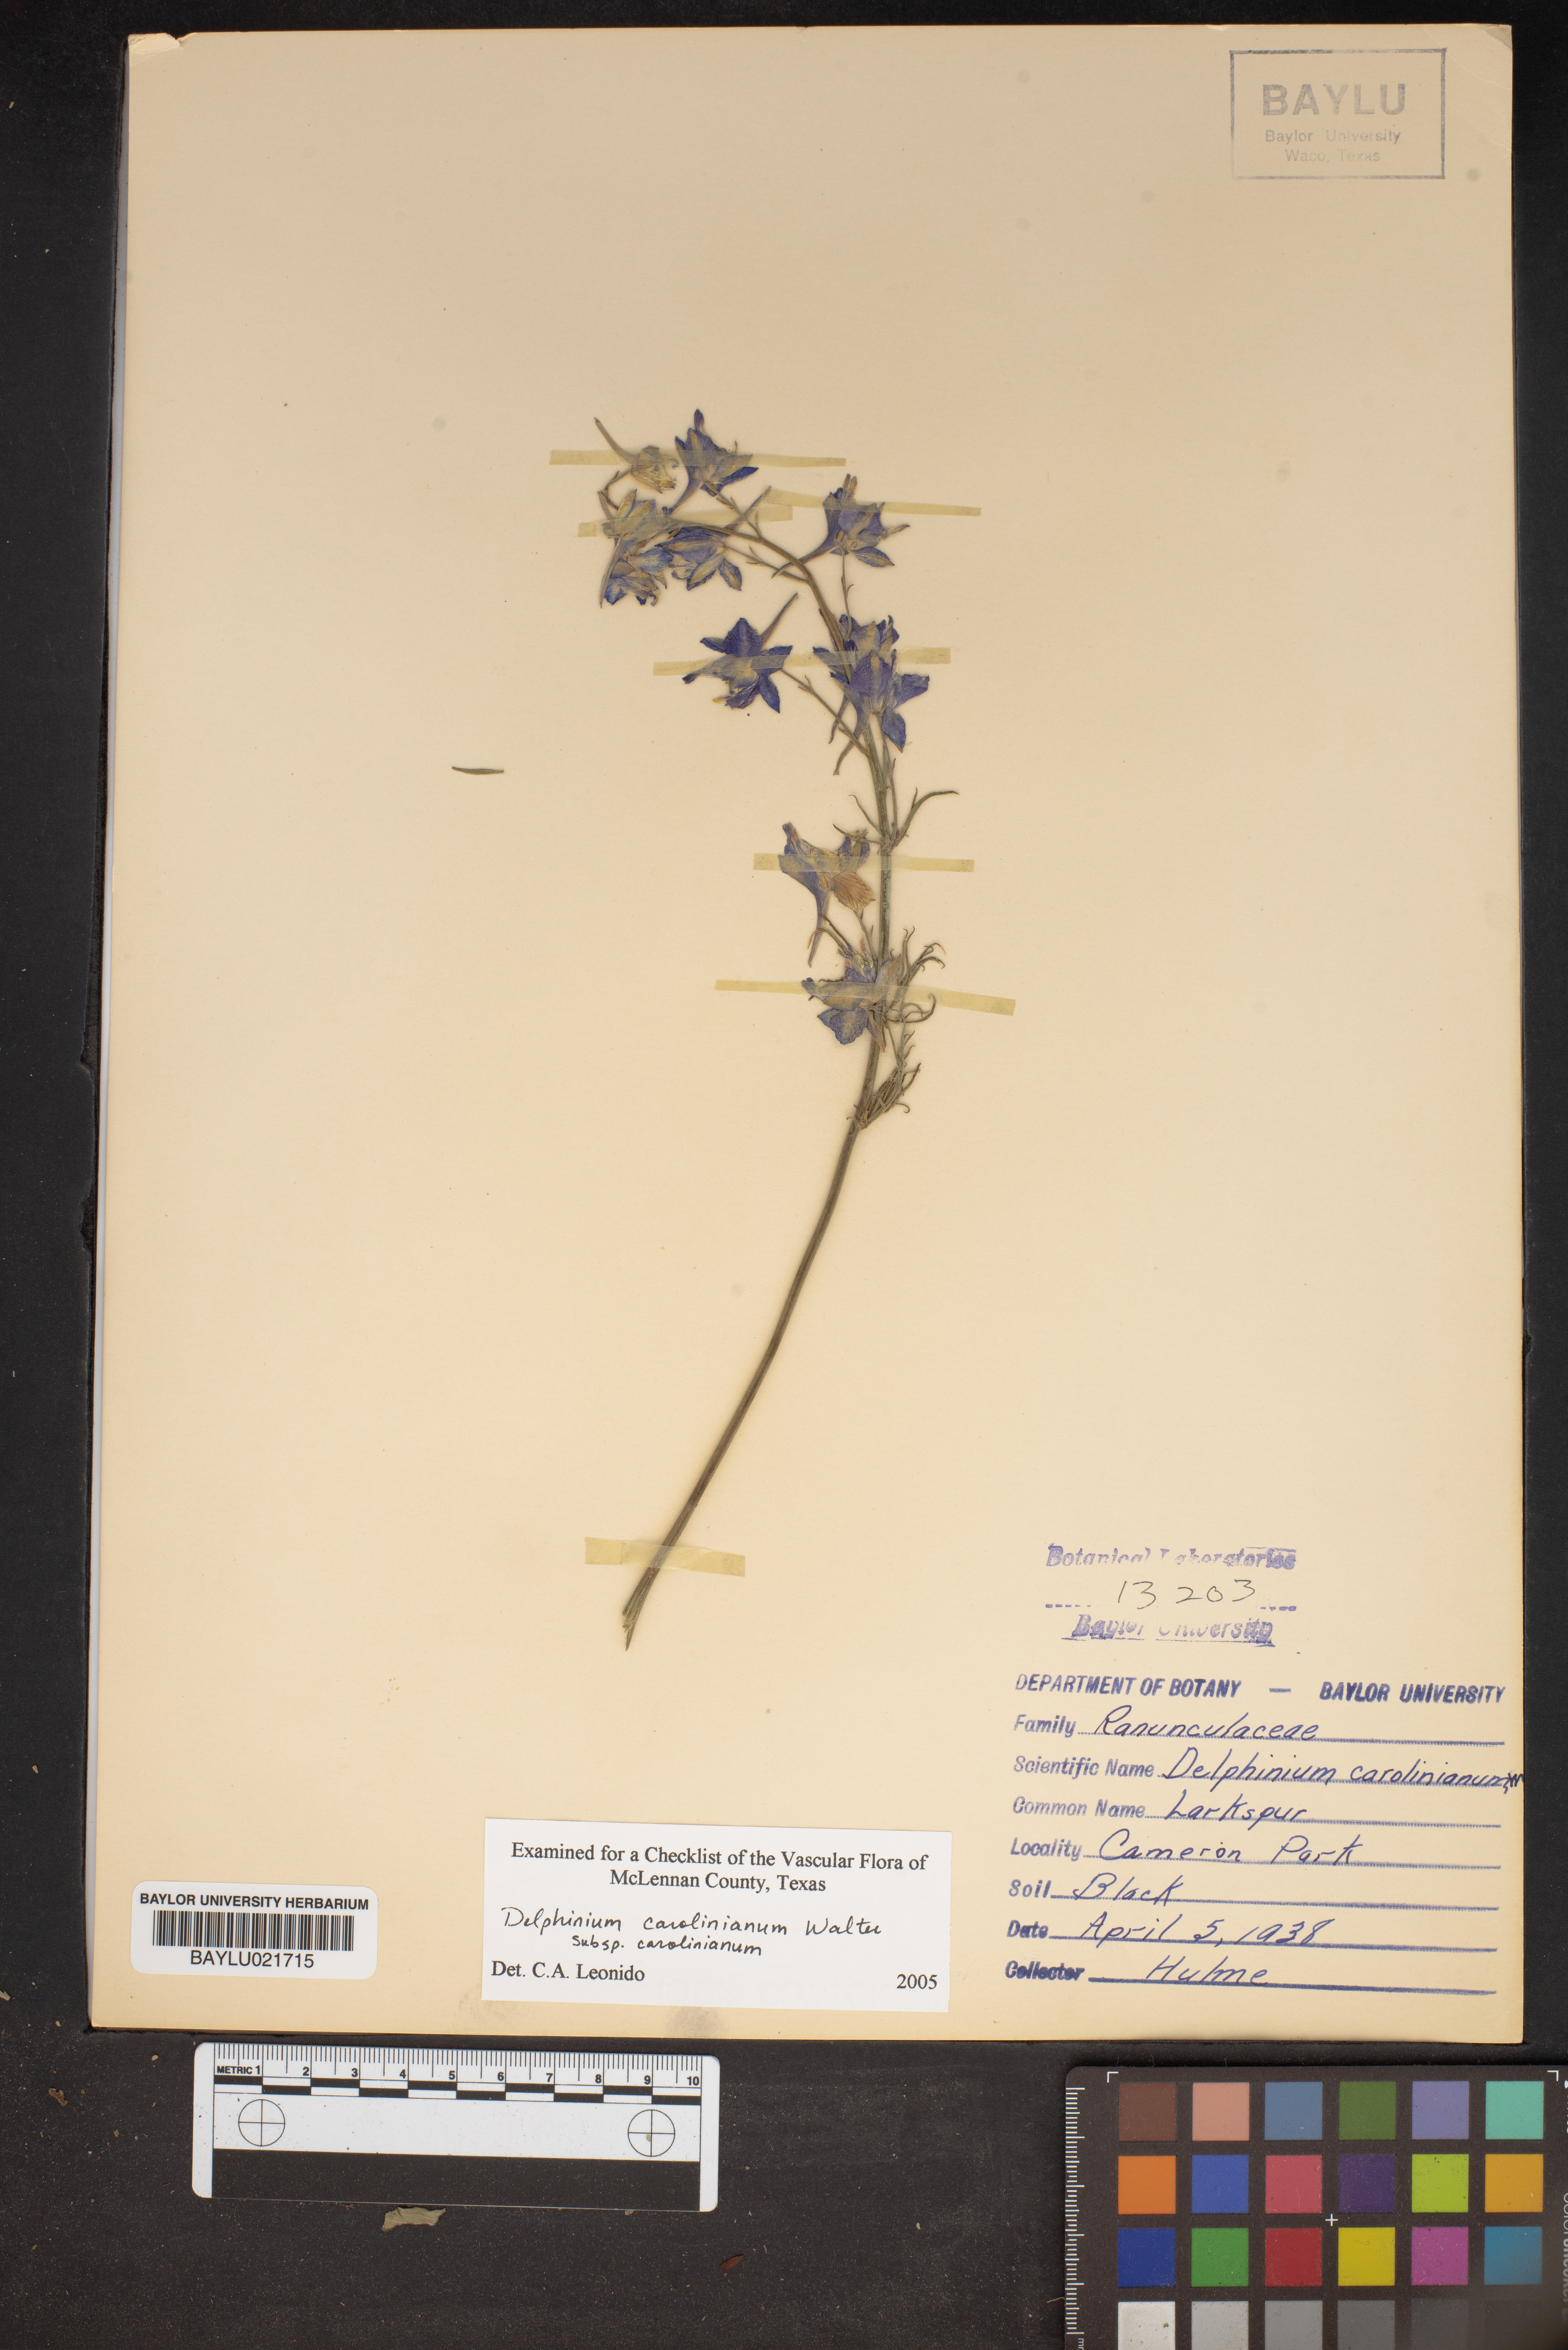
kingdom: Plantae
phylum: Tracheophyta
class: Magnoliopsida
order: Ranunculales
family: Ranunculaceae
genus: Delphinium
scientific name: Delphinium carolinianum
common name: Carolina larkspur
